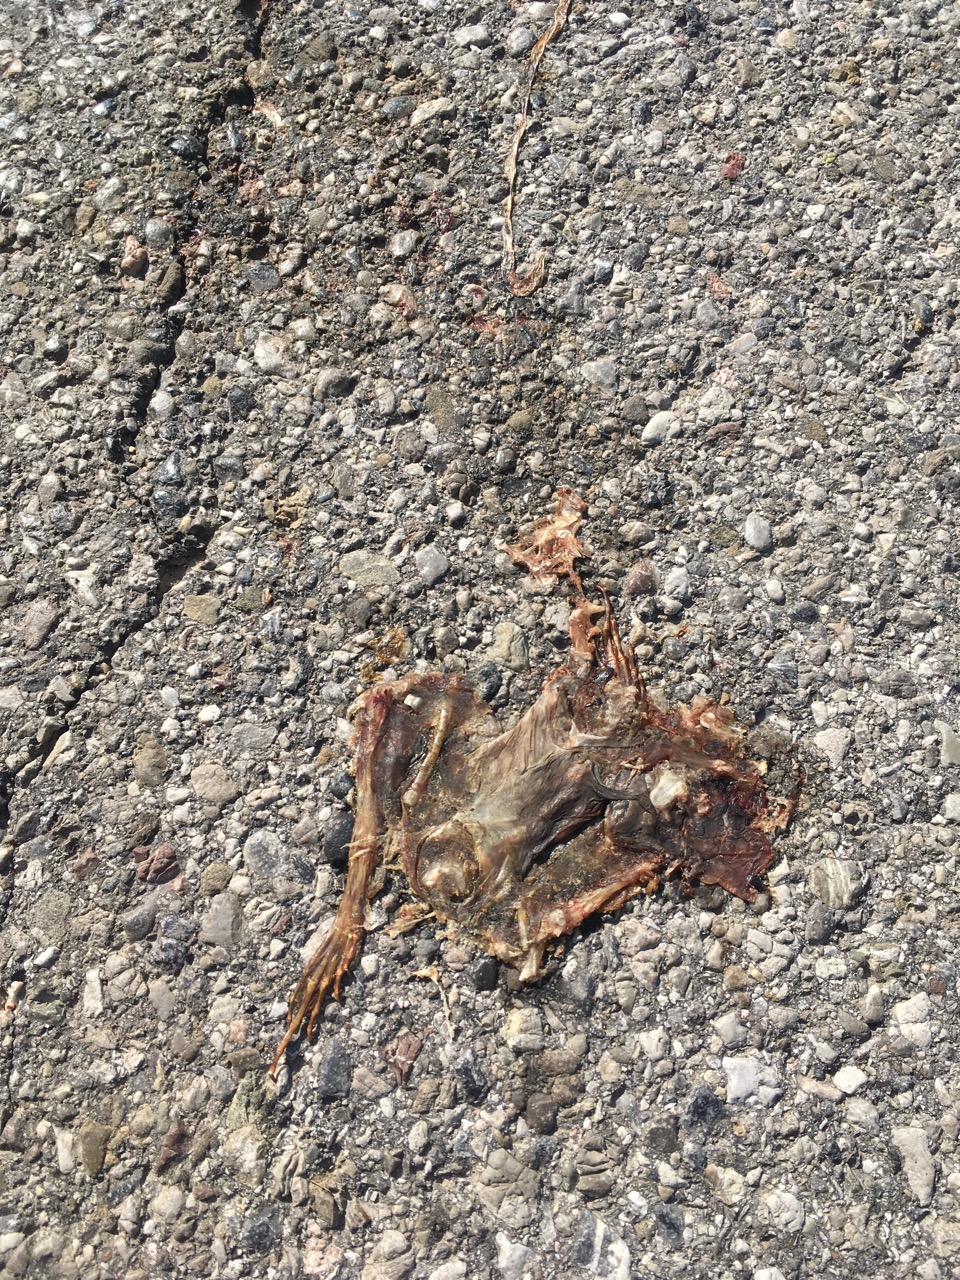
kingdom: Animalia
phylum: Chordata
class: Amphibia
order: Anura
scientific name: Anura
